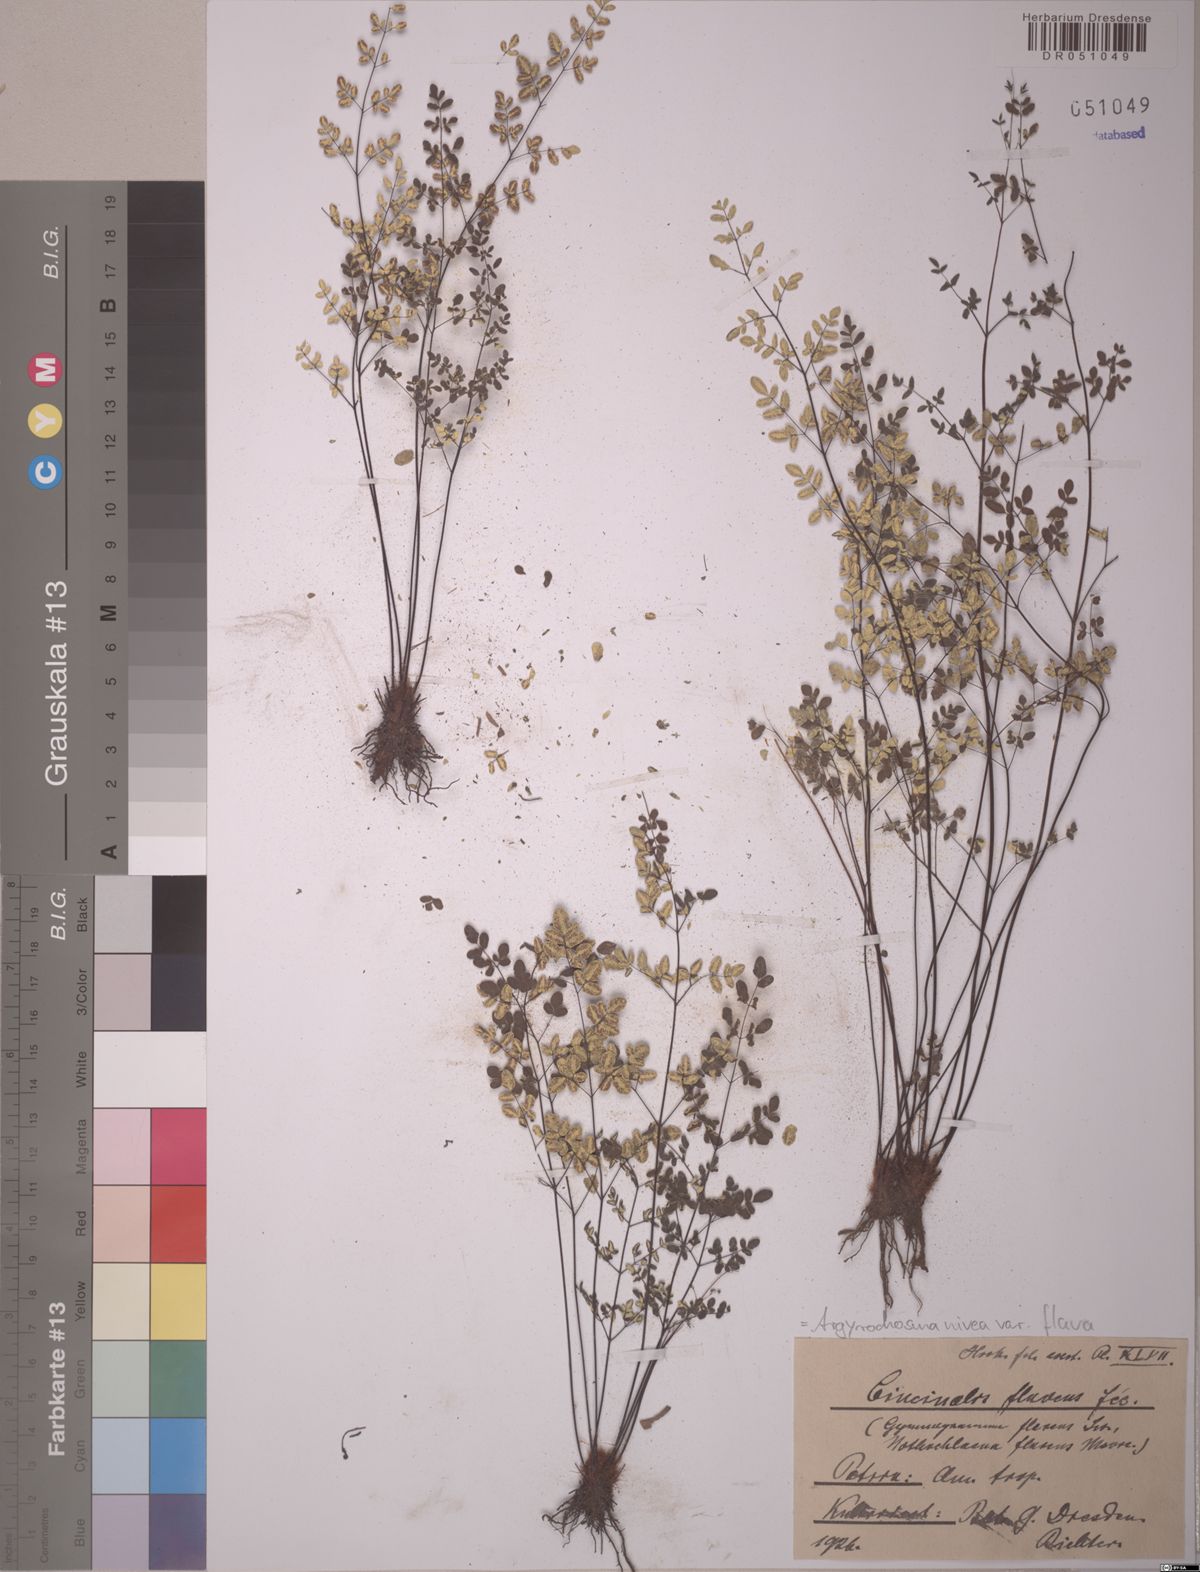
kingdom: Plantae
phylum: Tracheophyta
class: Polypodiopsida
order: Polypodiales
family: Pteridaceae
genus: Argyrochosma
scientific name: Argyrochosma flava
